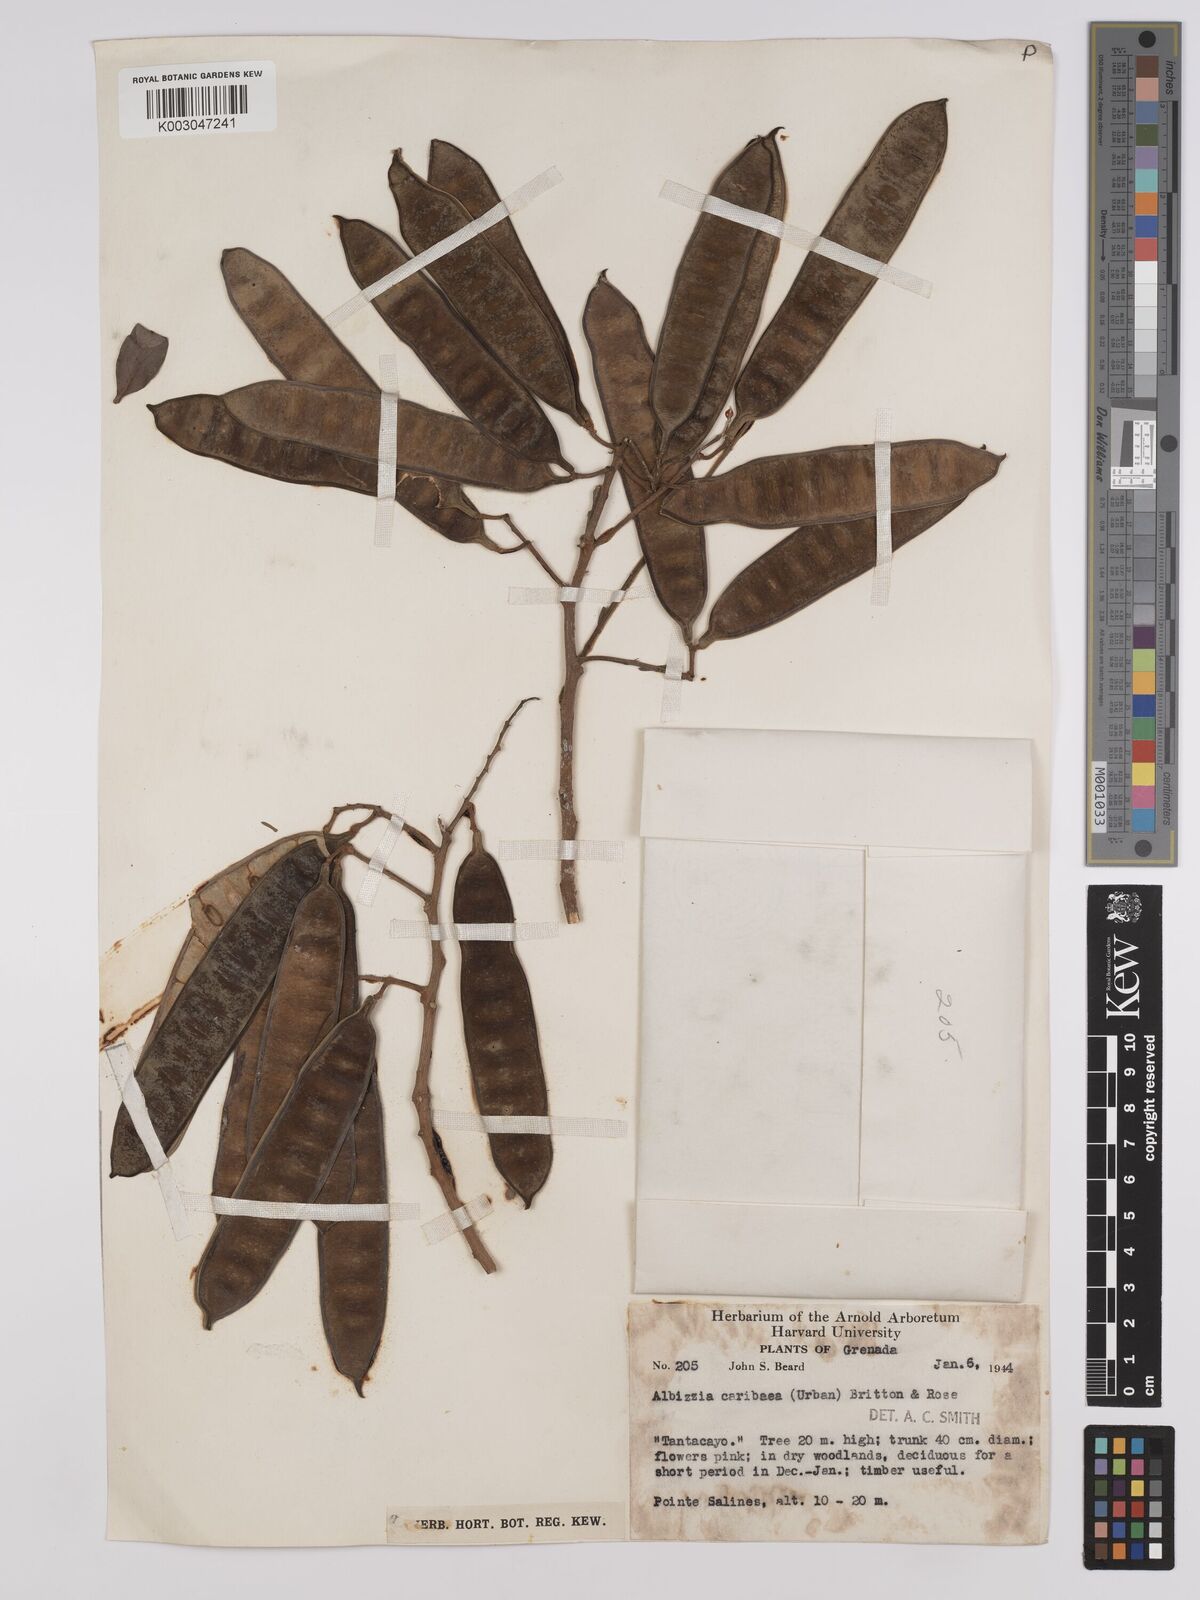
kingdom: Plantae
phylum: Tracheophyta
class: Magnoliopsida
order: Fabales
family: Fabaceae
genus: Albizia
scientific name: Albizia niopoides
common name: Silk tree
